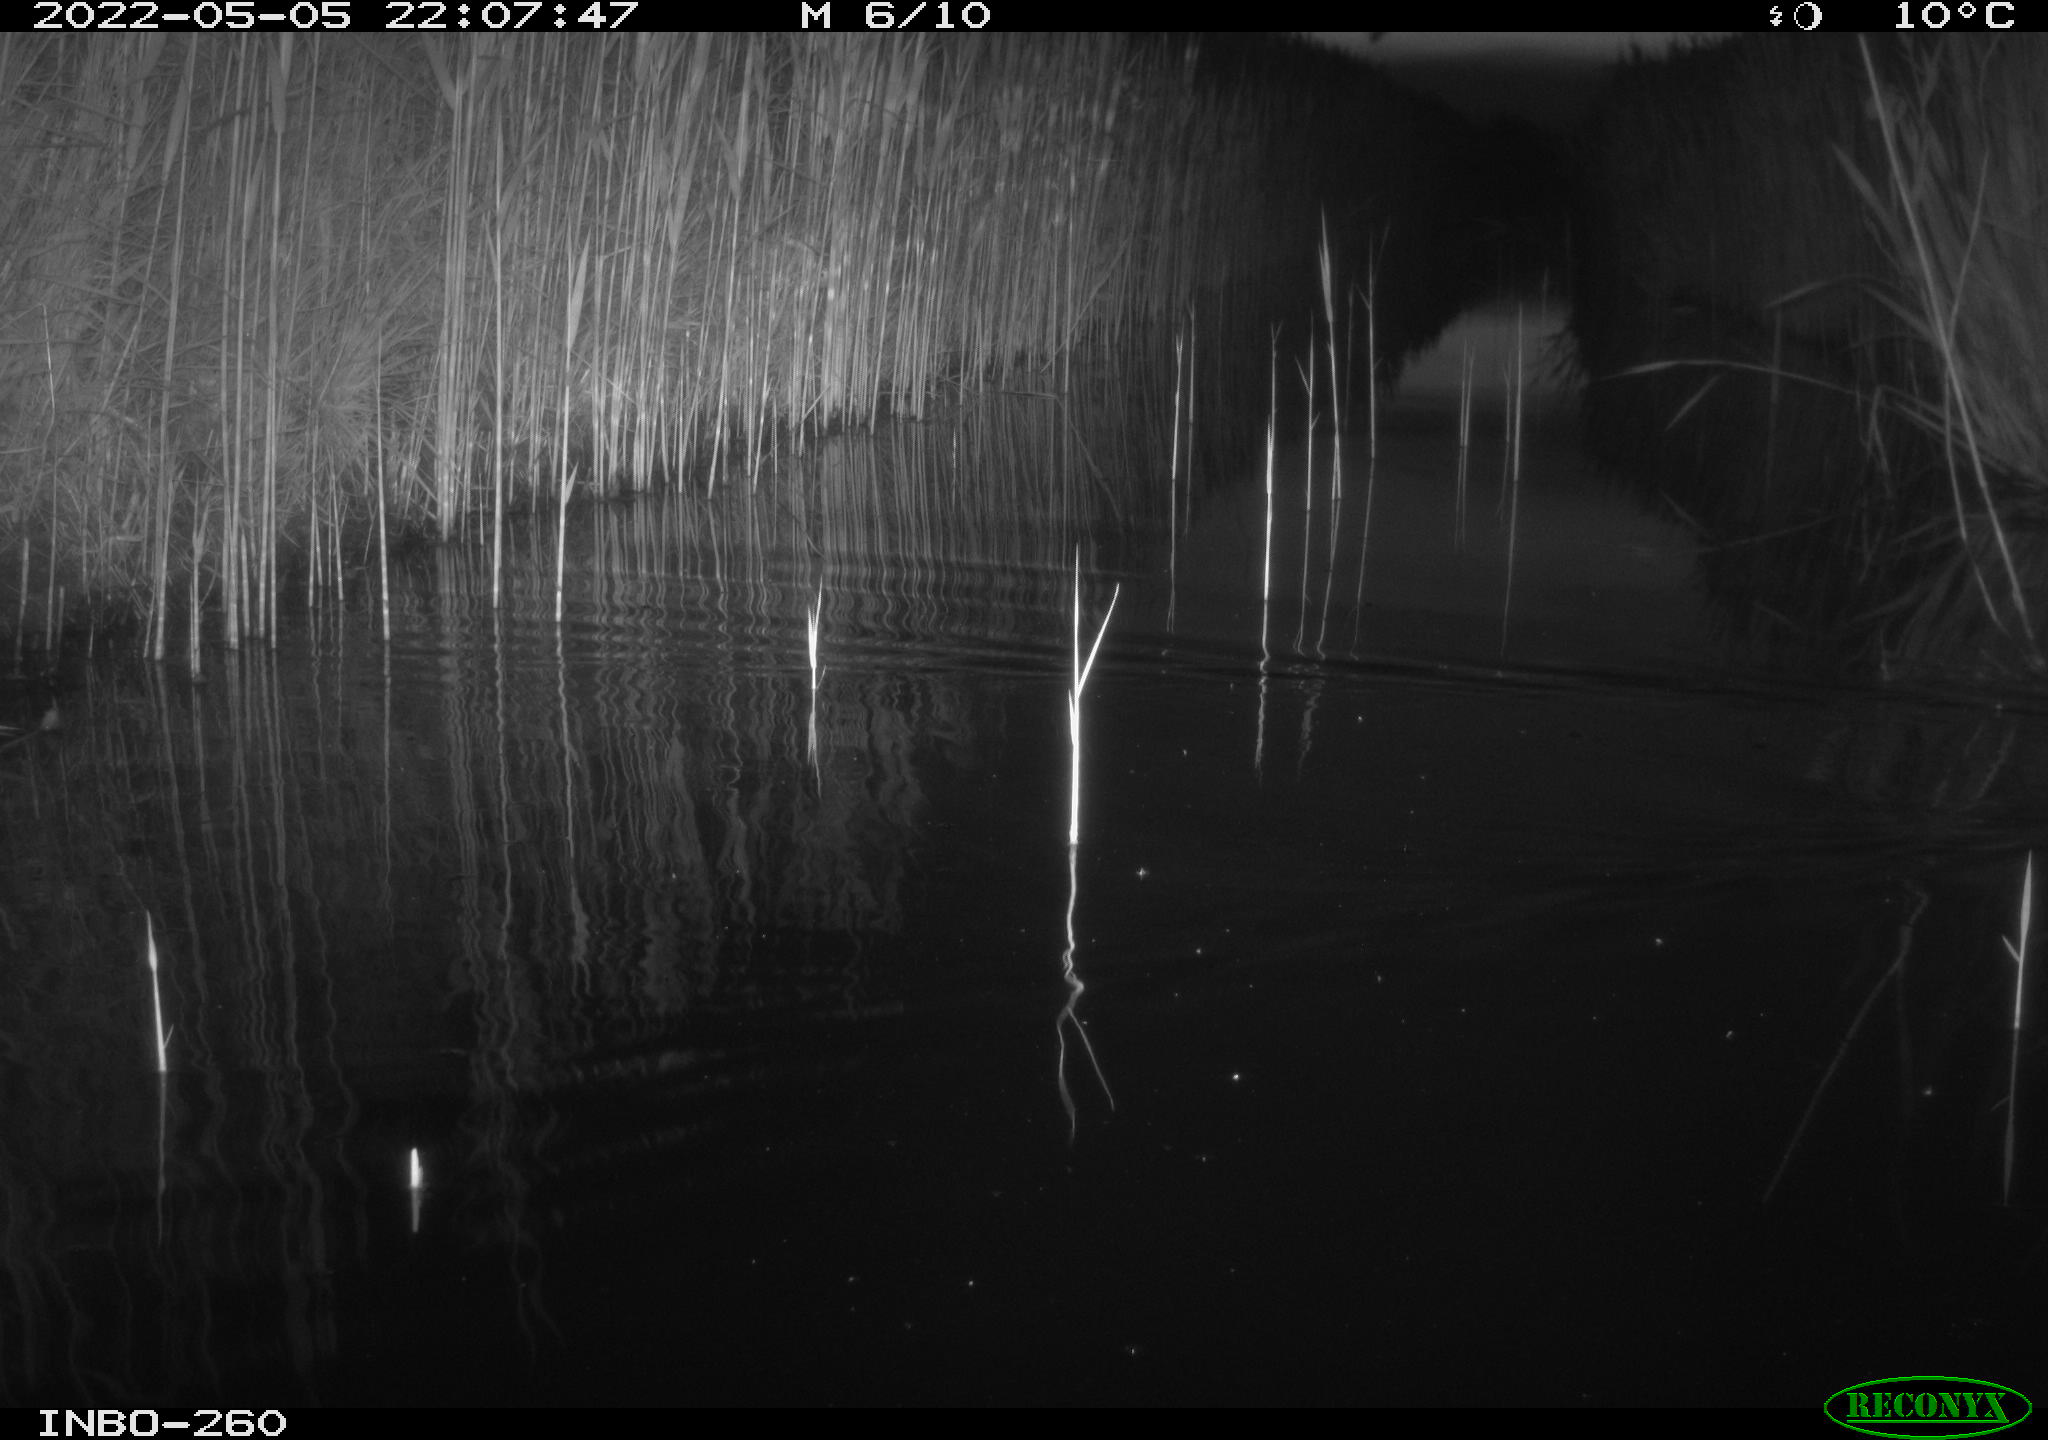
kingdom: Animalia
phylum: Chordata
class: Mammalia
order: Rodentia
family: Muridae
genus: Rattus
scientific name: Rattus norvegicus
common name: Brown rat
